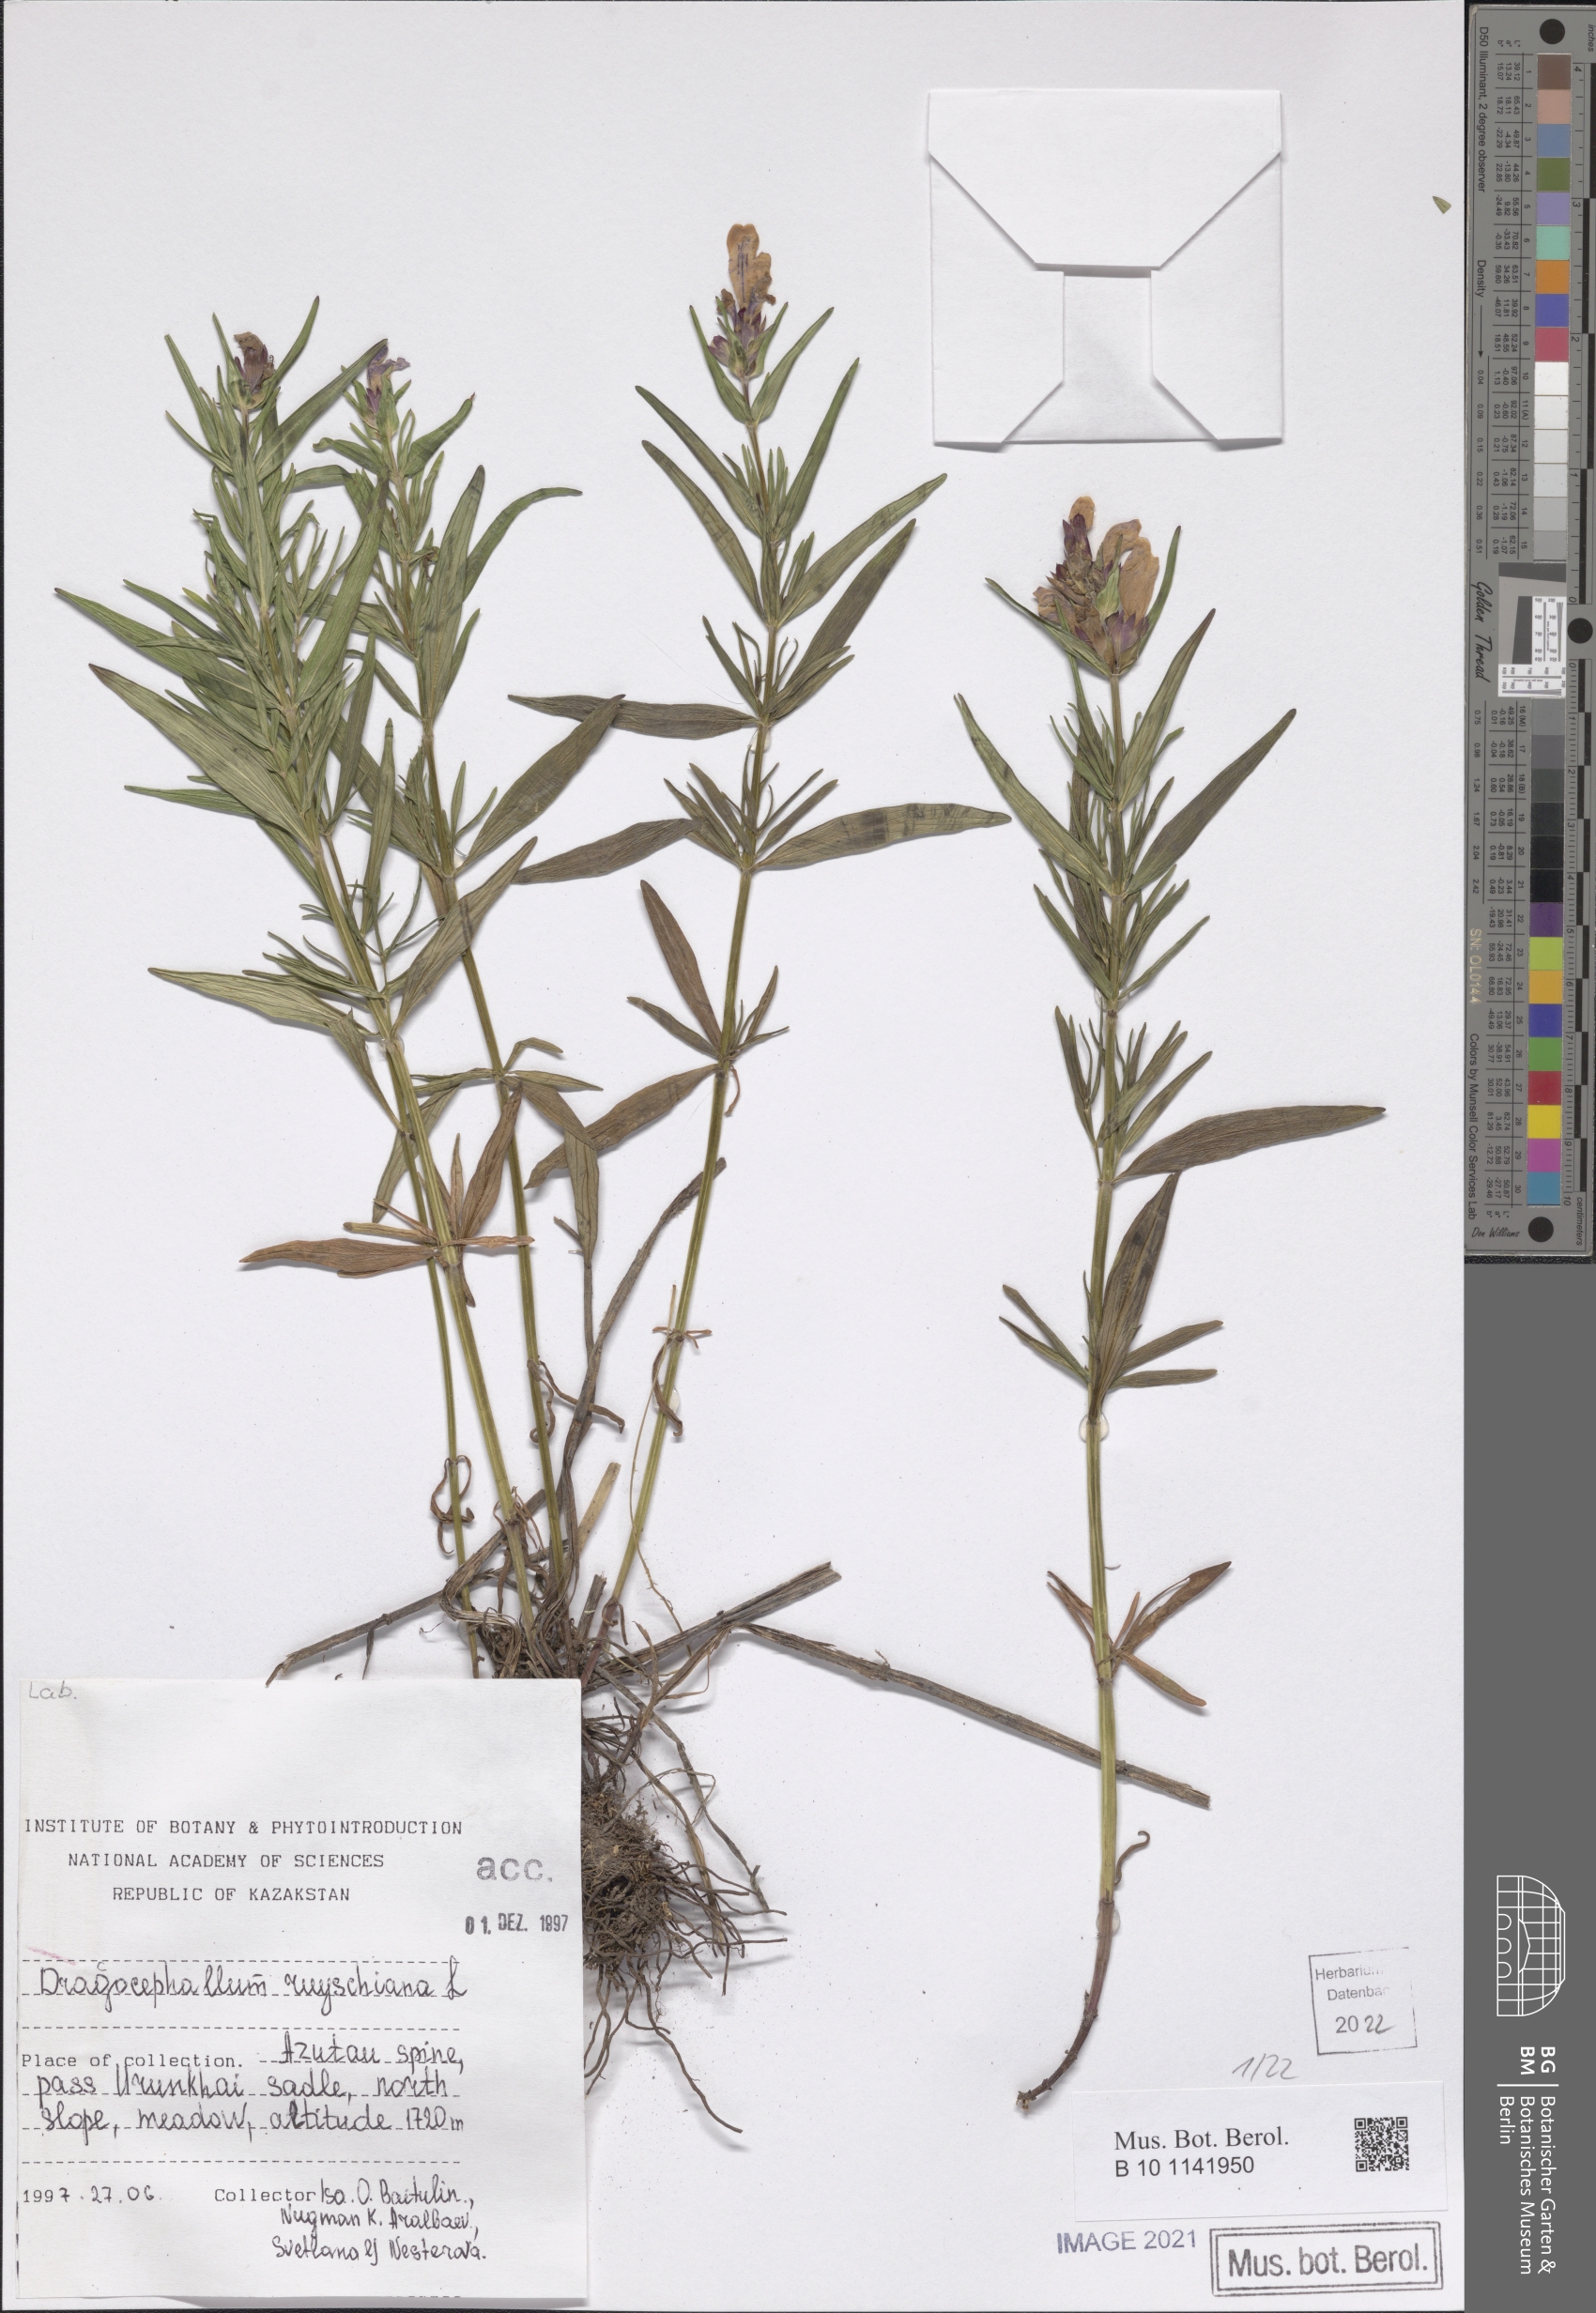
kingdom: Plantae
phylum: Tracheophyta
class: Magnoliopsida
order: Lamiales
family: Lamiaceae
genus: Dracocephalum
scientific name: Dracocephalum ruyschiana
